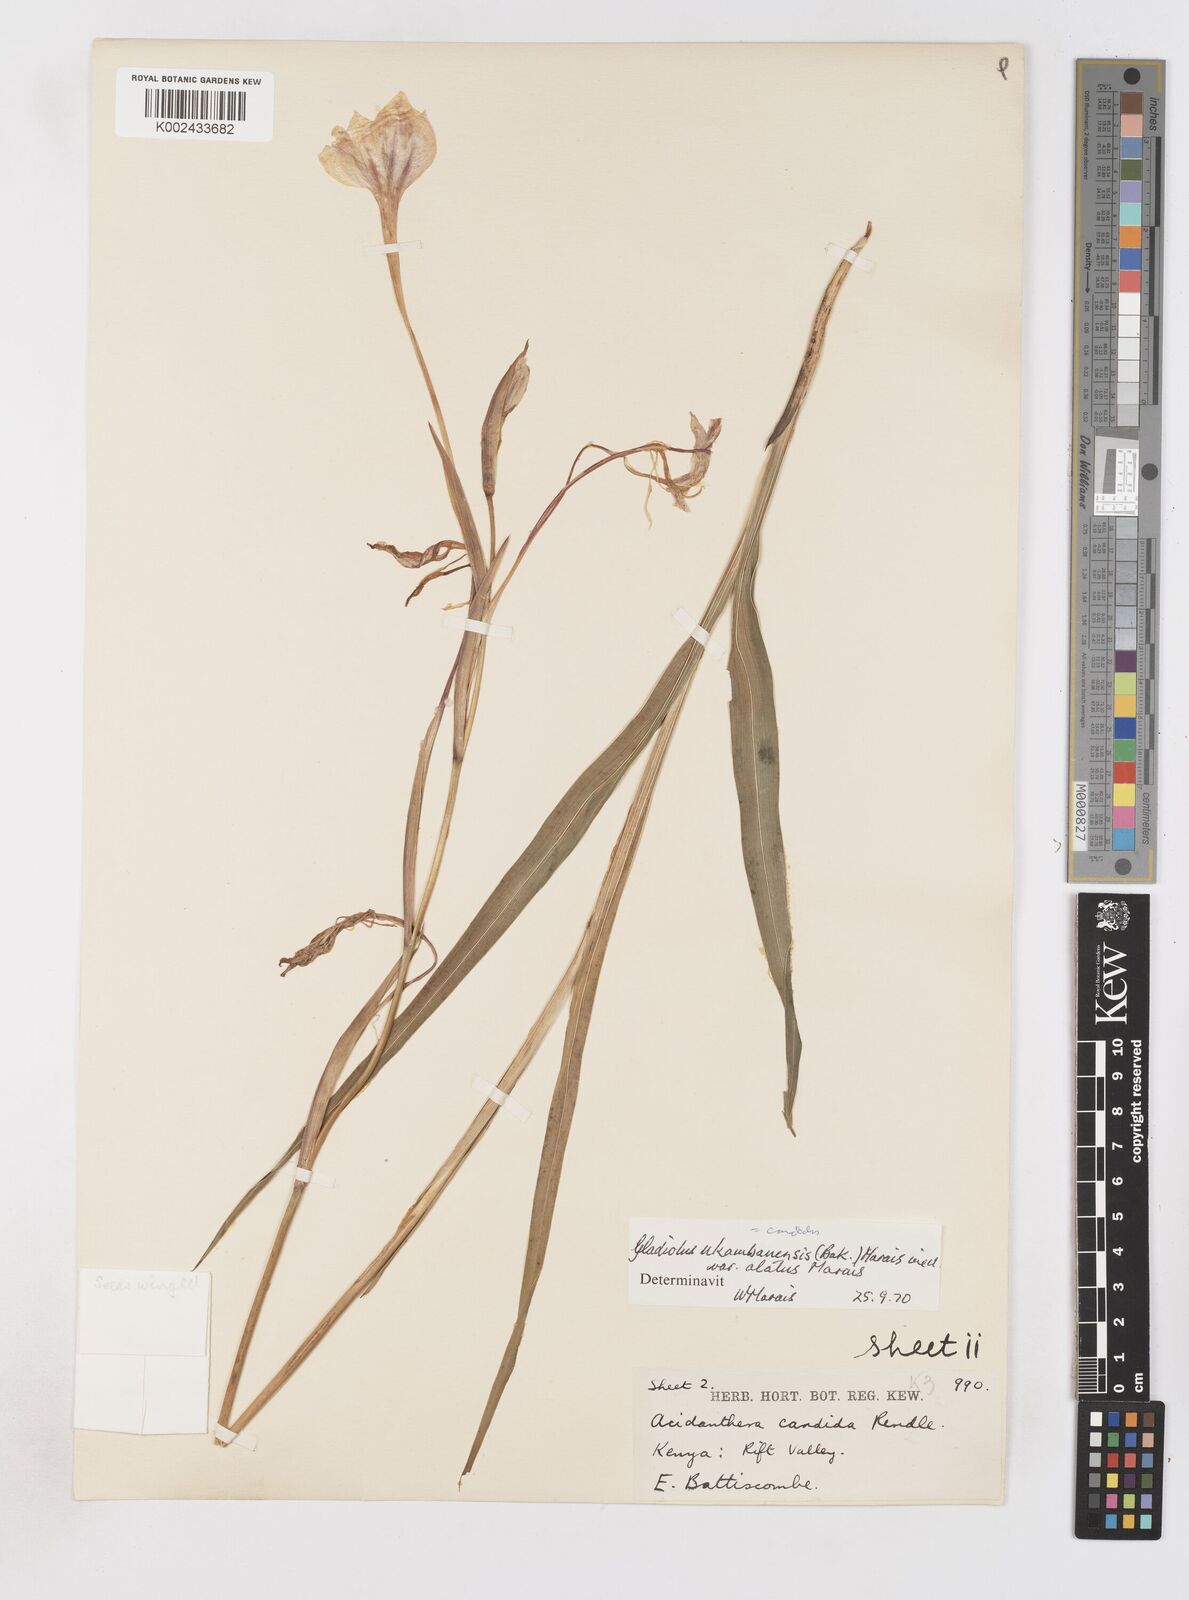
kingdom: Plantae
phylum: Tracheophyta
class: Liliopsida
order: Asparagales
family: Iridaceae
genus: Gladiolus
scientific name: Gladiolus candidus
